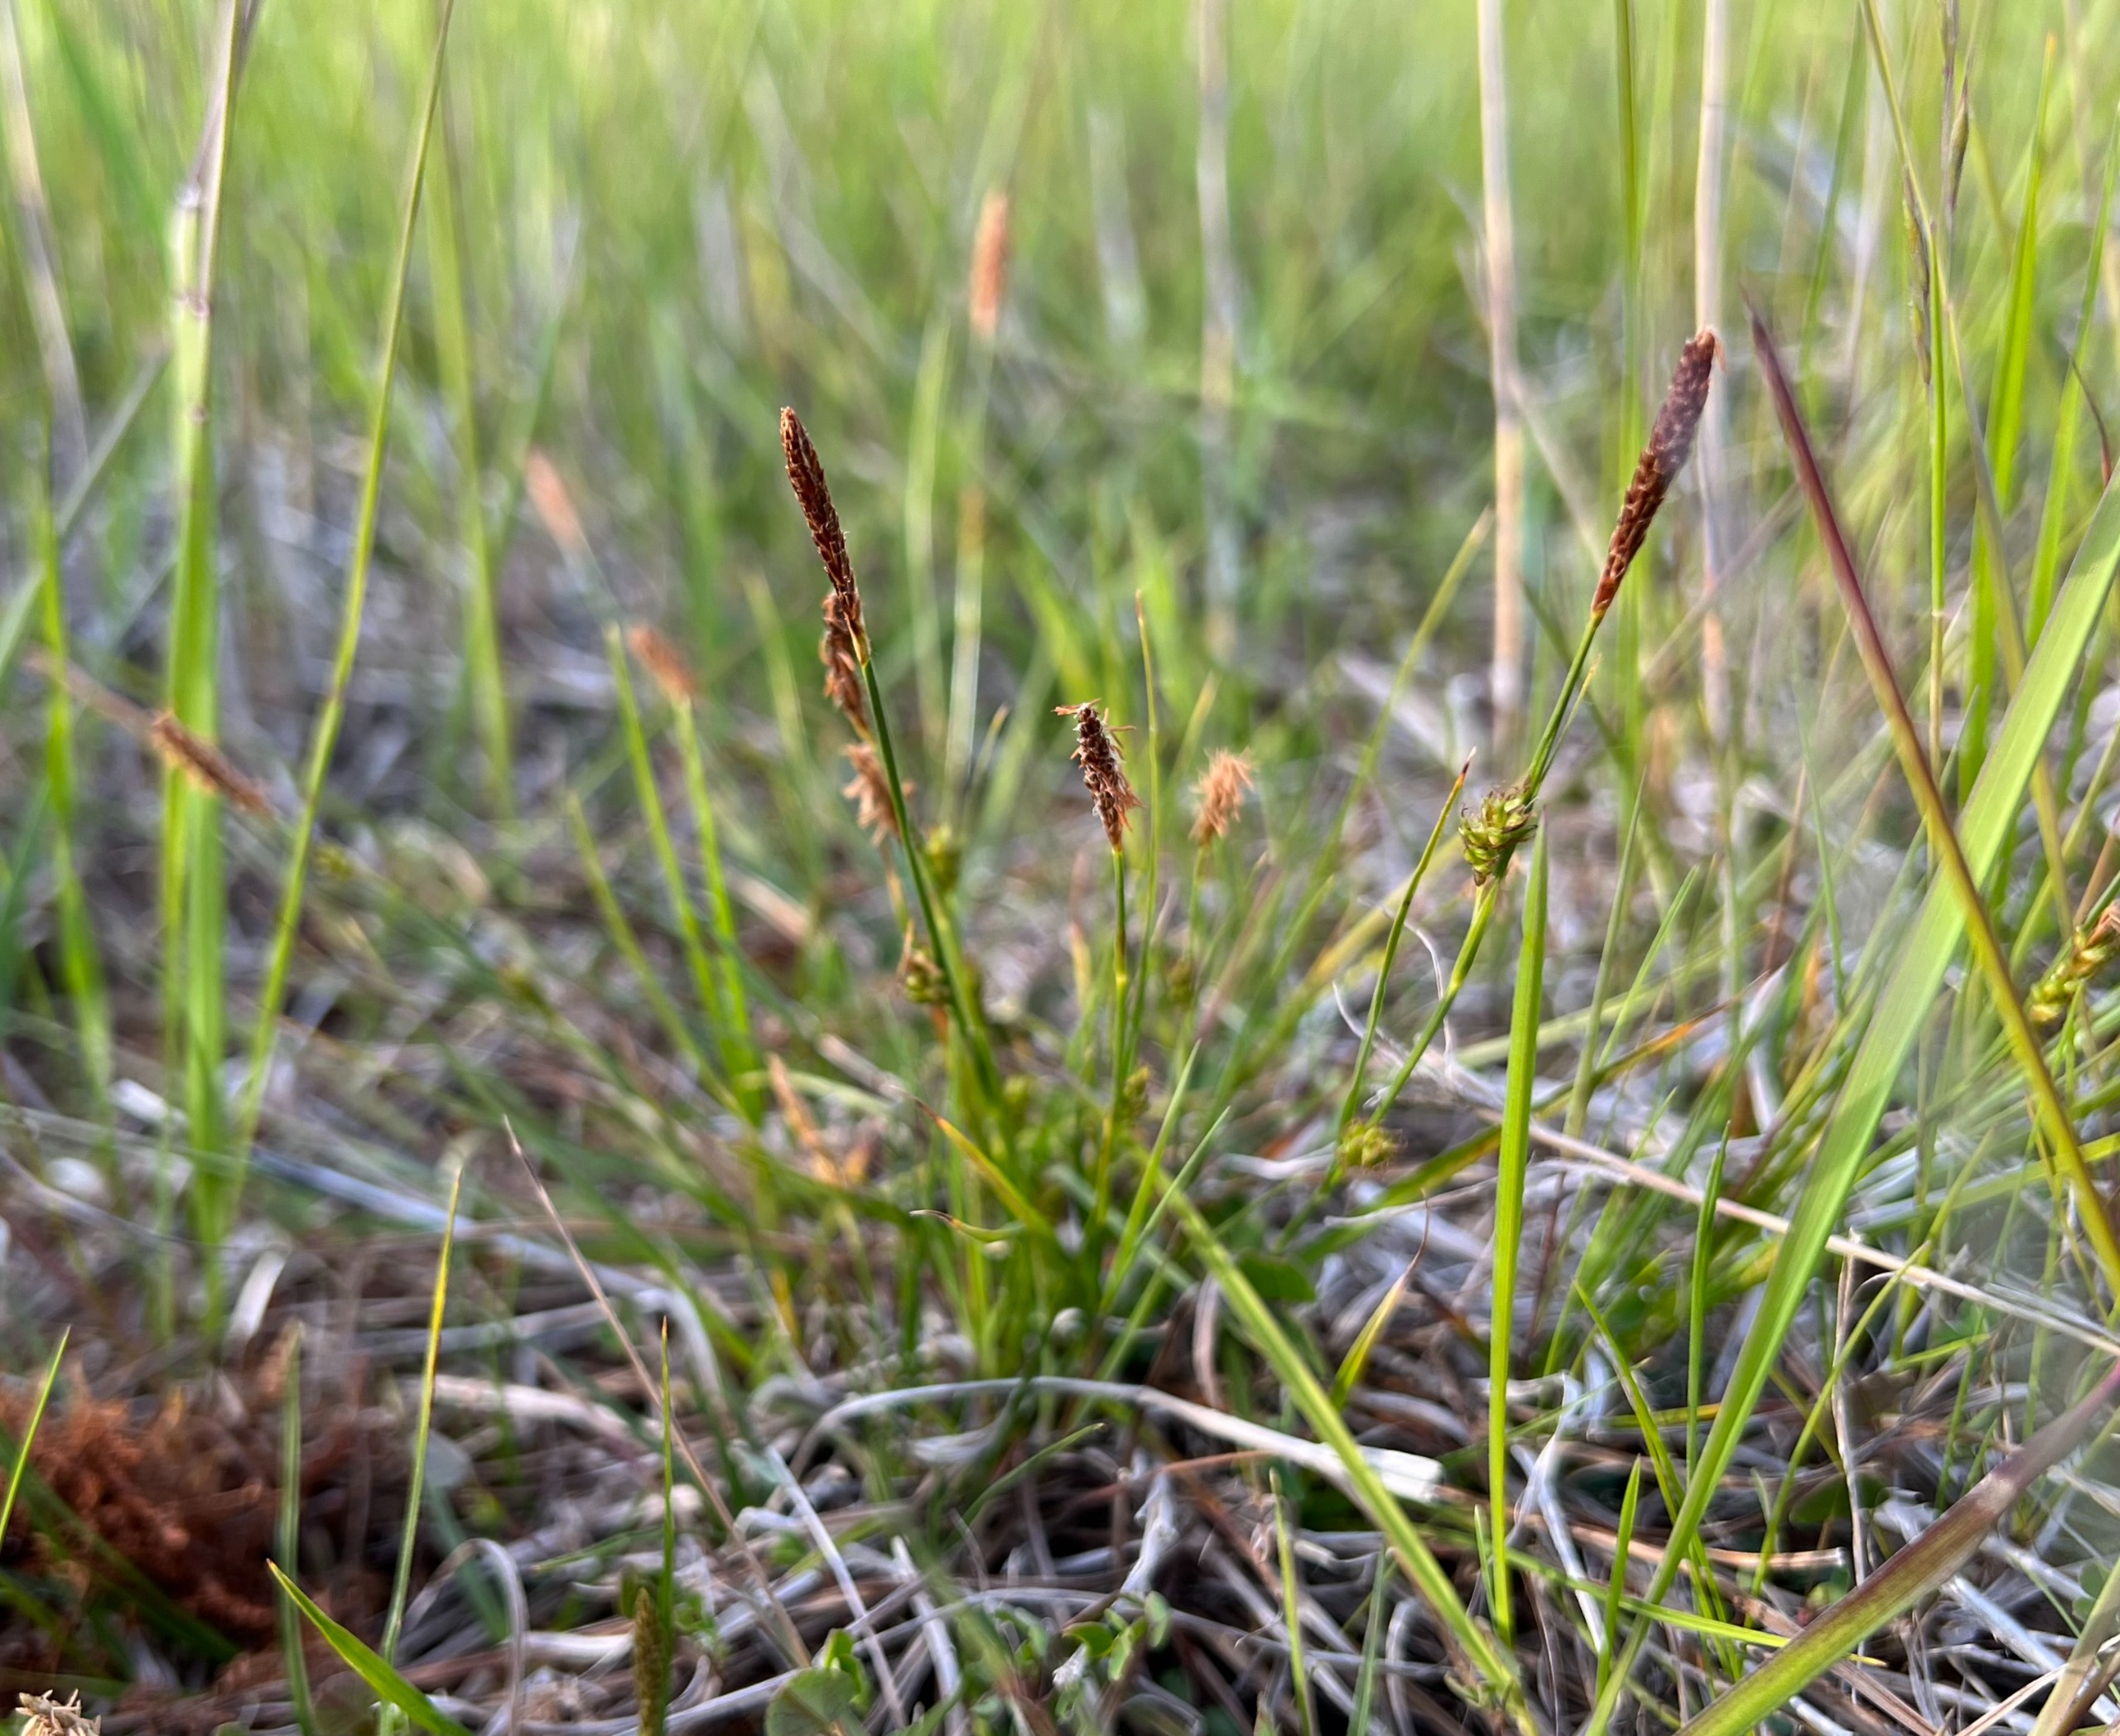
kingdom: Plantae
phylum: Tracheophyta
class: Liliopsida
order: Poales
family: Cyperaceae
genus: Carex
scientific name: Carex distans
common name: Fjernakset star
